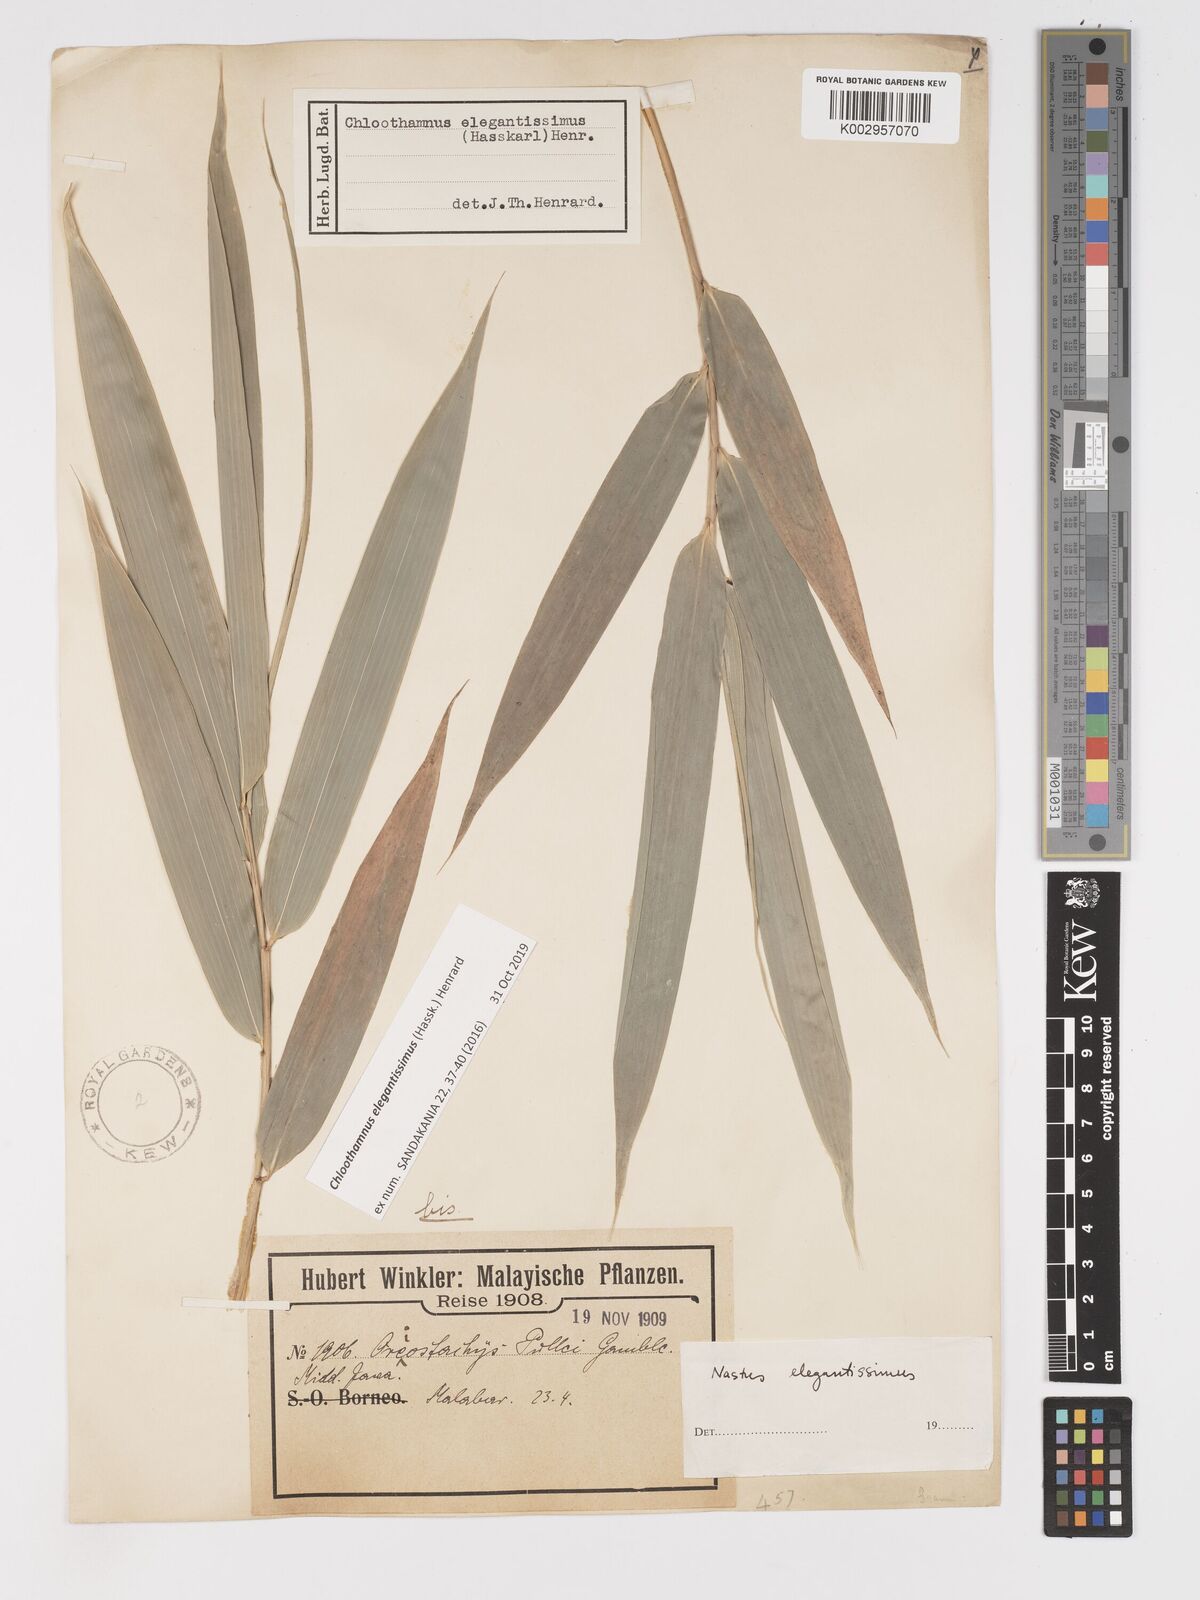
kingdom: Plantae
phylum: Tracheophyta
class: Liliopsida
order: Poales
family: Poaceae
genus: Chloothamnus
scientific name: Chloothamnus elegantissimus
